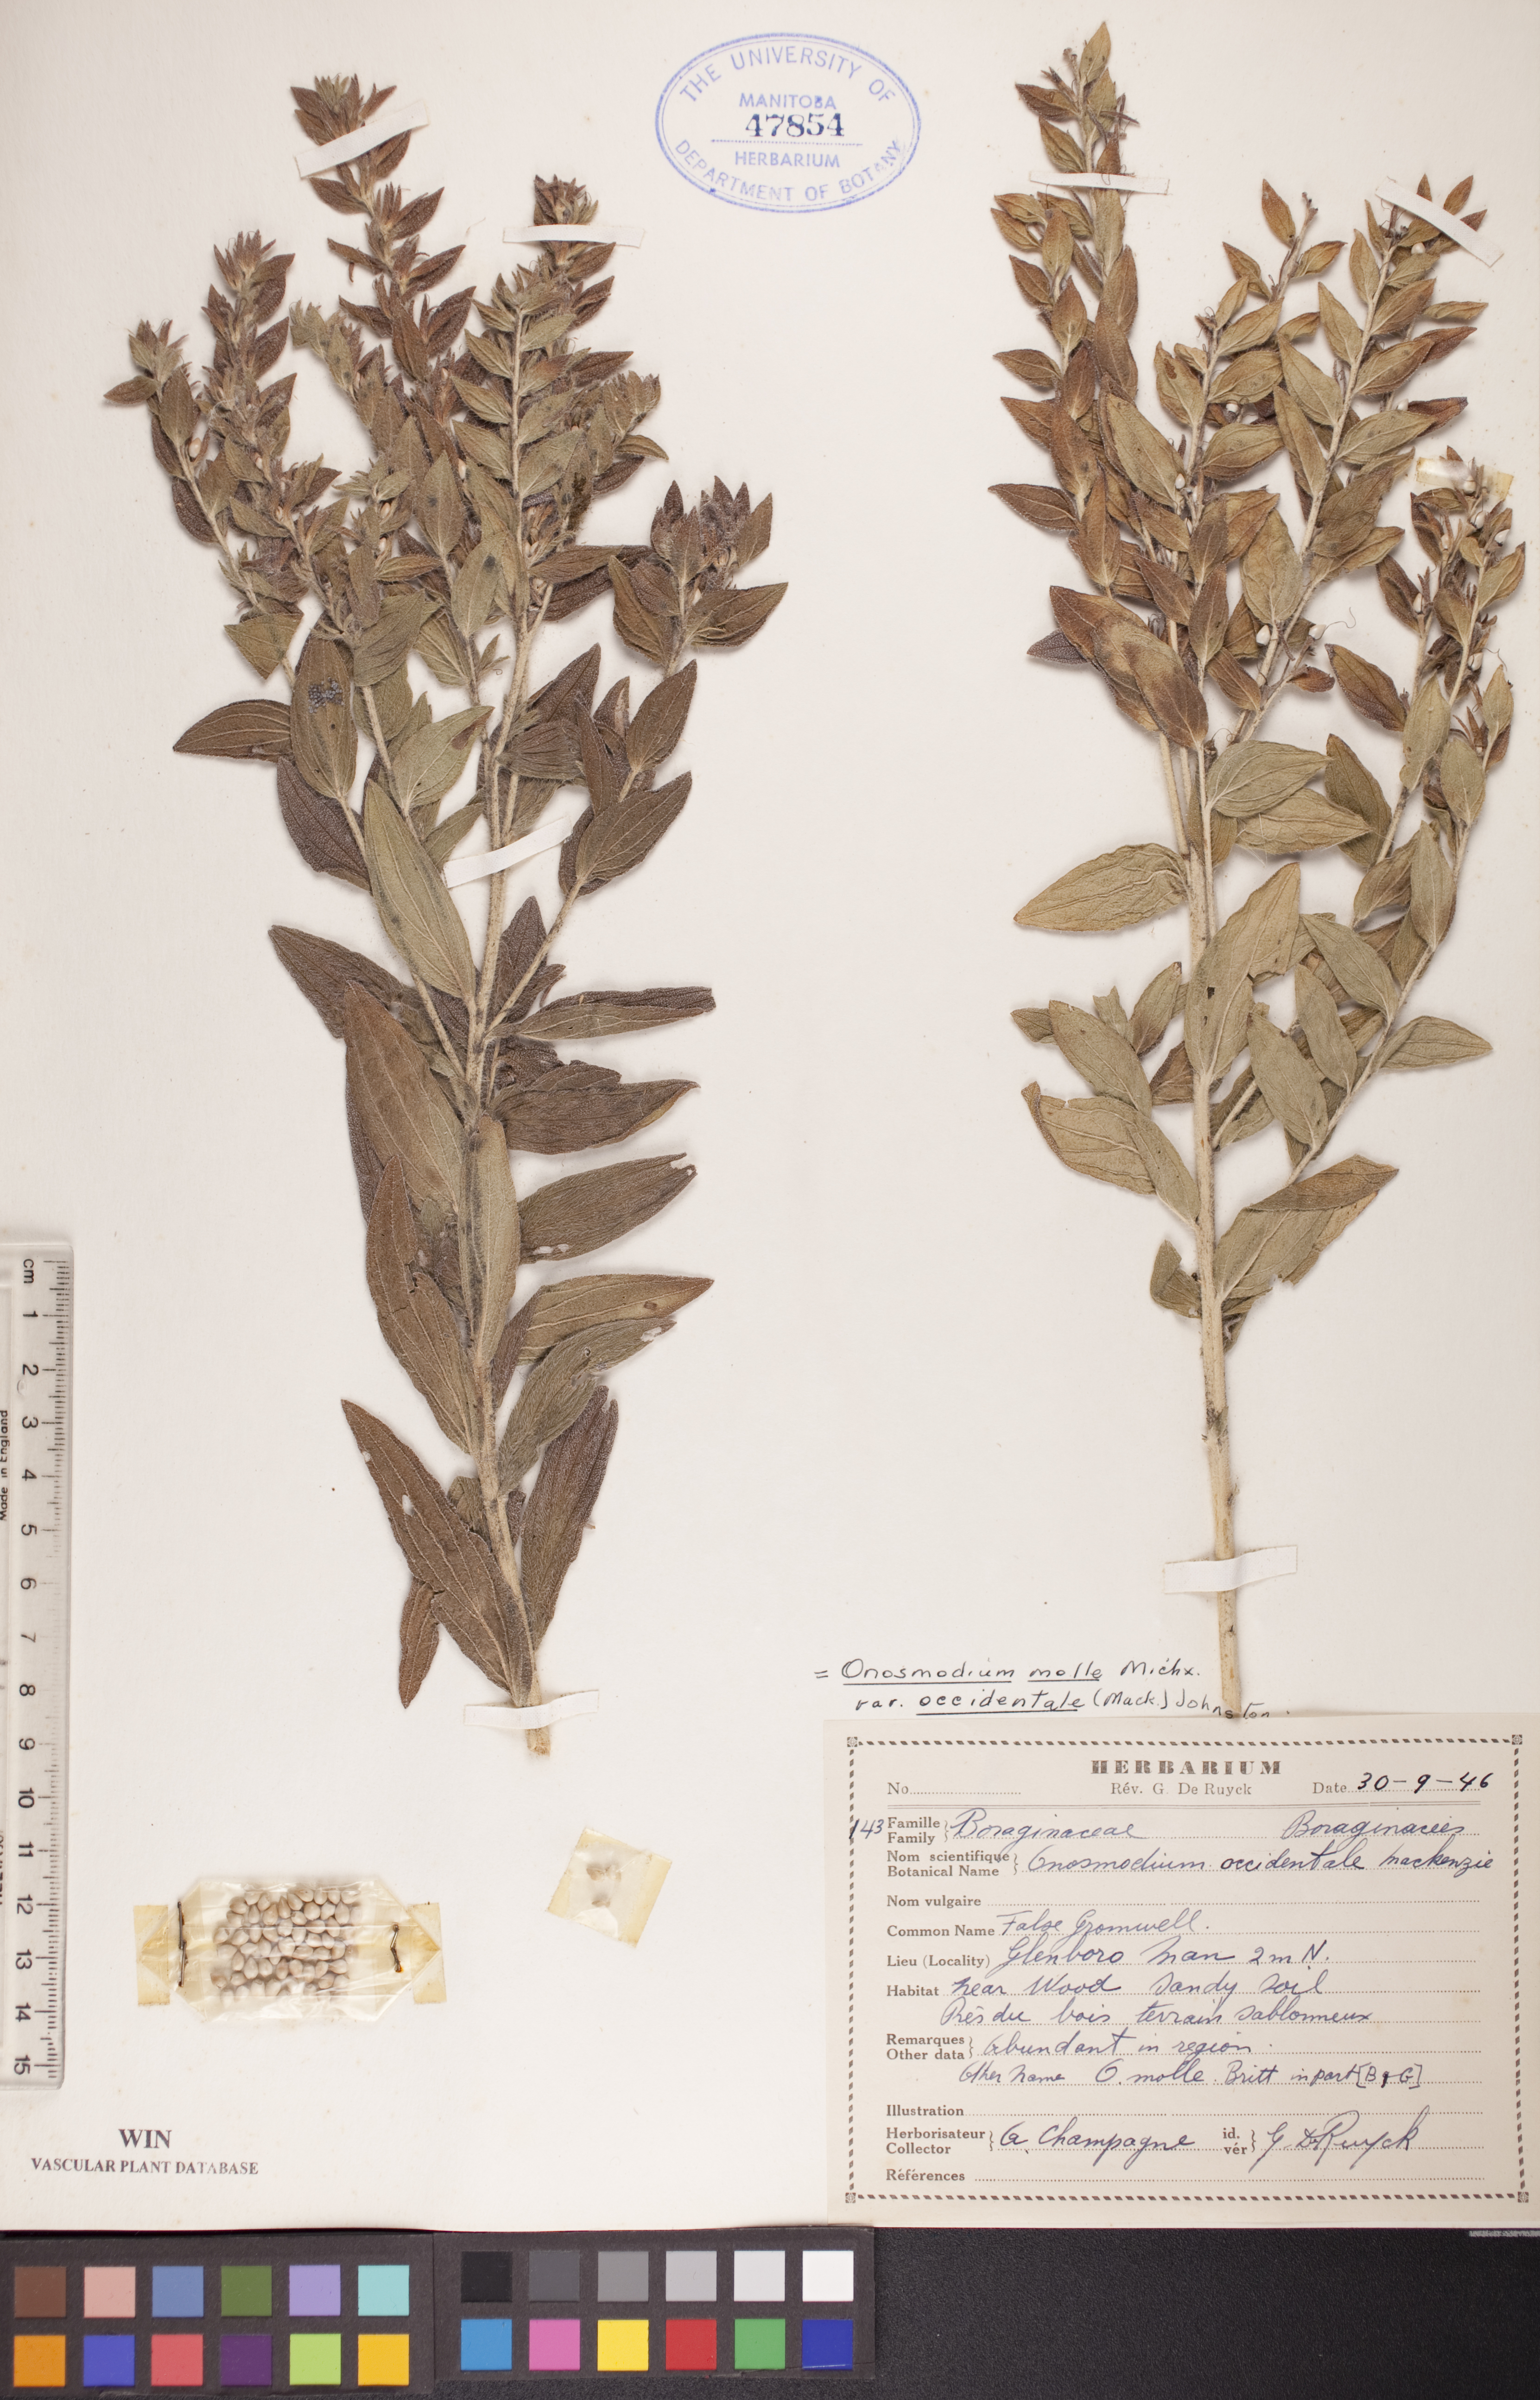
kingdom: Plantae
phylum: Tracheophyta
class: Magnoliopsida
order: Boraginales
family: Boraginaceae
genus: Lithospermum
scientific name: Lithospermum occidentale
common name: Western false gromwell
